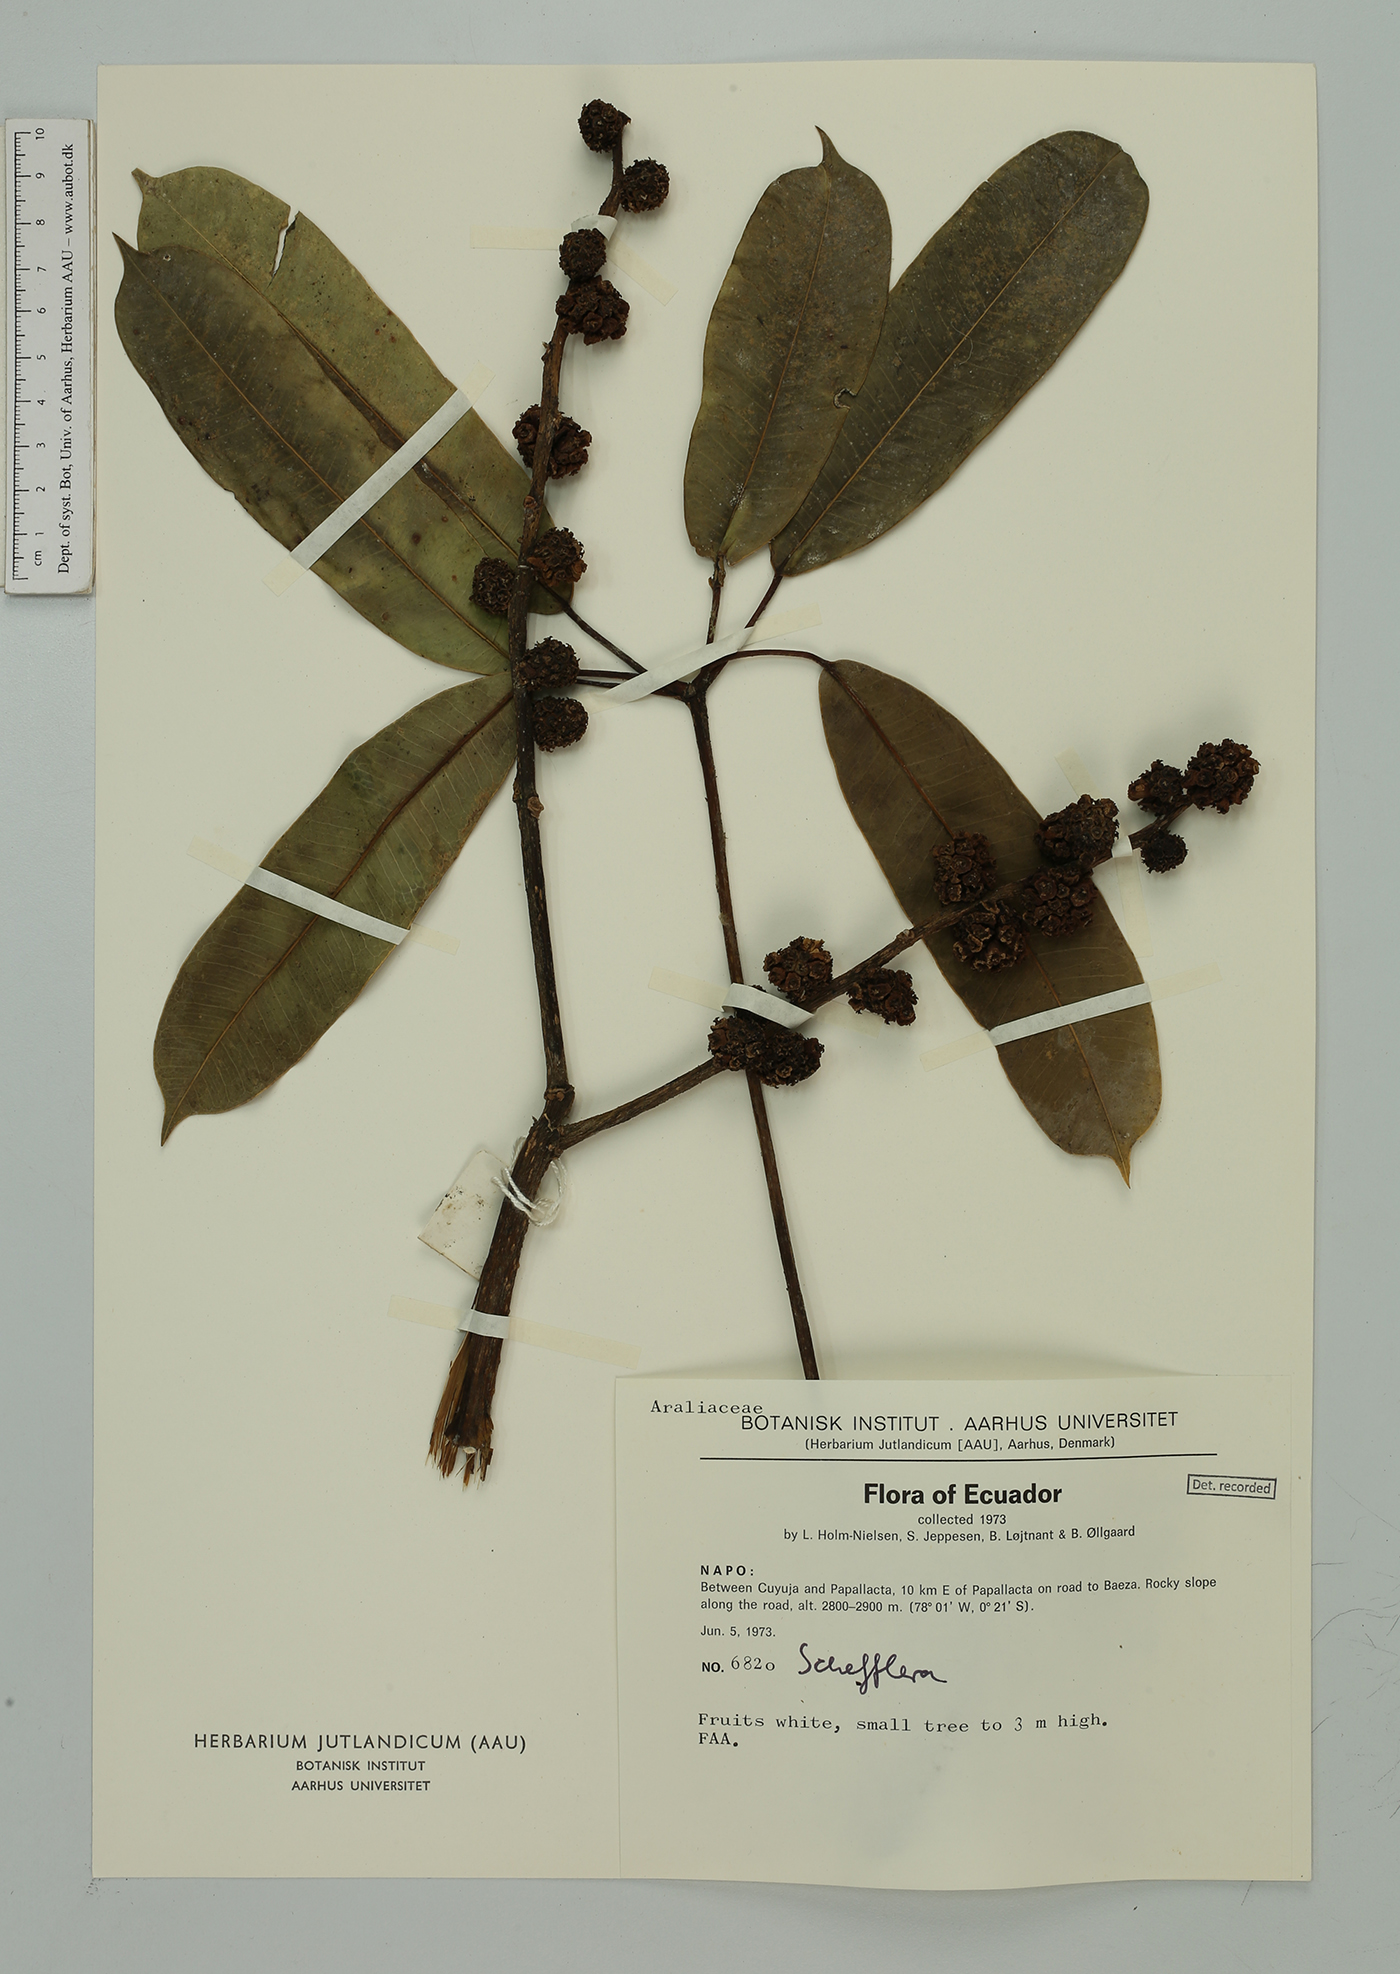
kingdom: Plantae
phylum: Tracheophyta
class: Magnoliopsida
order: Apiales
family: Araliaceae
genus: Schefflera
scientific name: Schefflera
